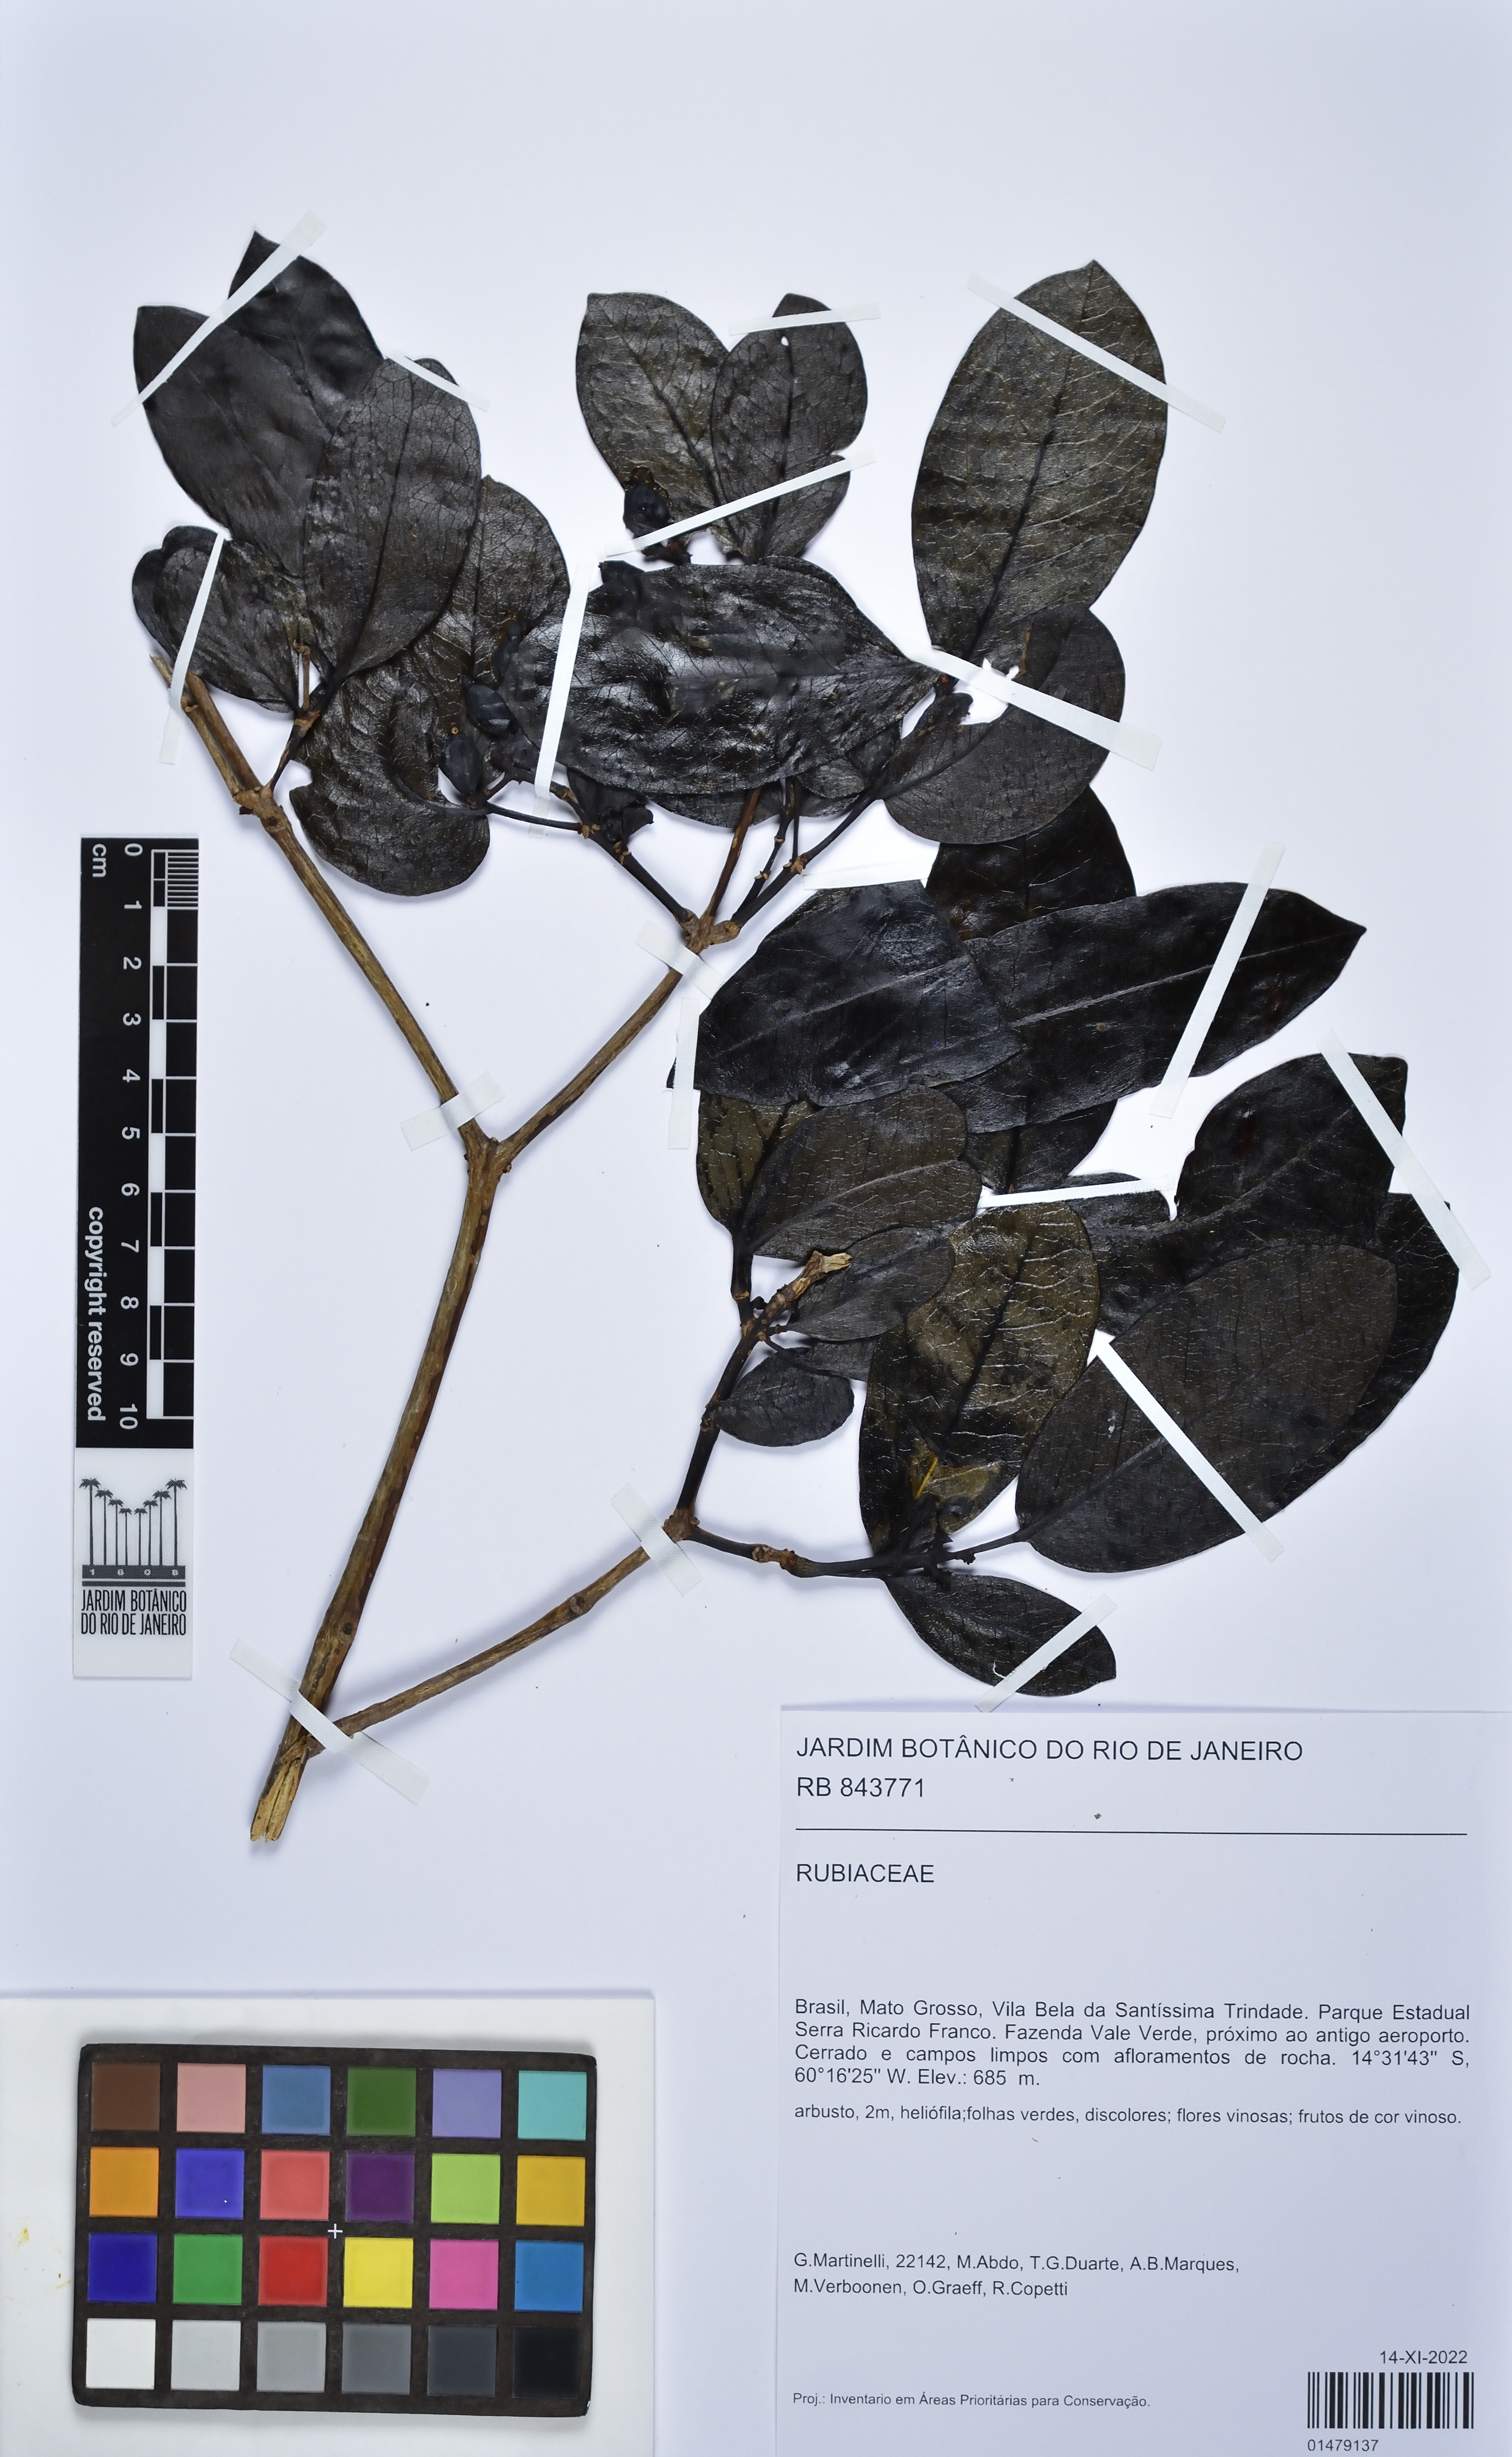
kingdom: Plantae
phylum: Tracheophyta
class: Magnoliopsida
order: Gentianales
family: Rubiaceae
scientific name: Rubiaceae
